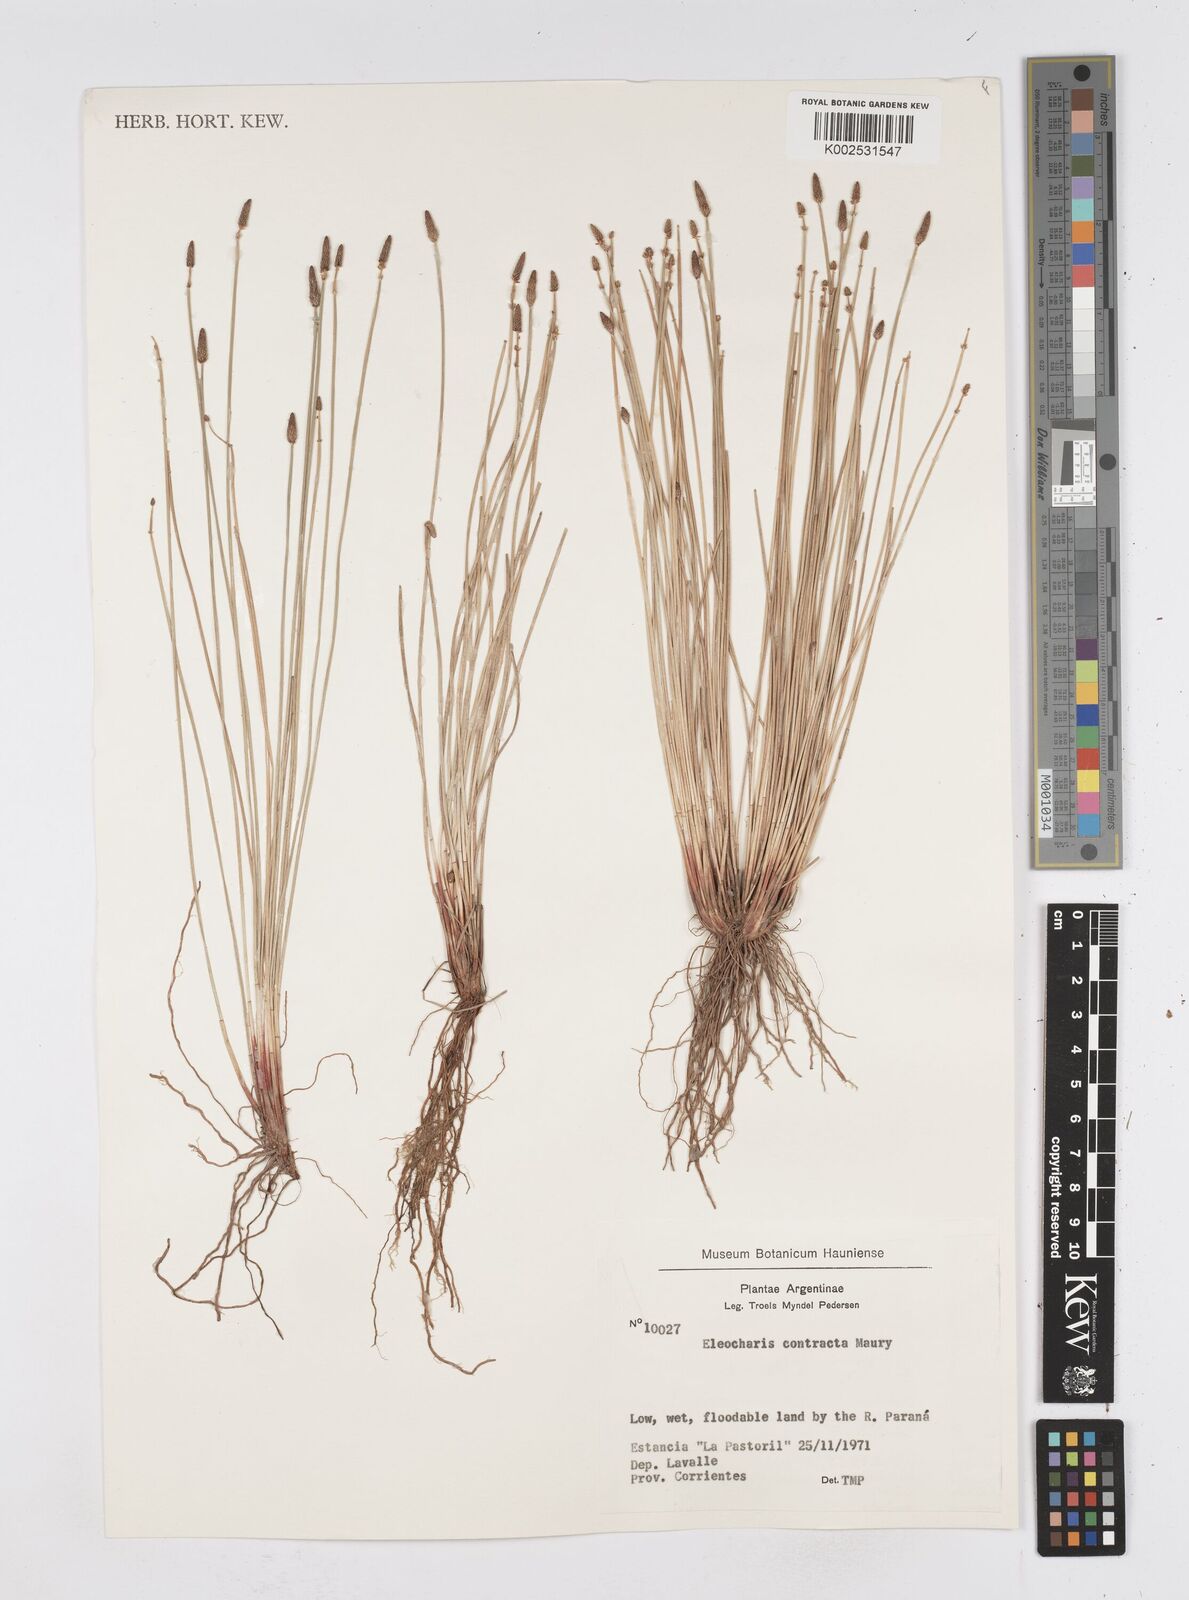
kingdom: Plantae
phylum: Tracheophyta
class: Liliopsida
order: Poales
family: Cyperaceae
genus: Eleocharis
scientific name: Eleocharis montana
